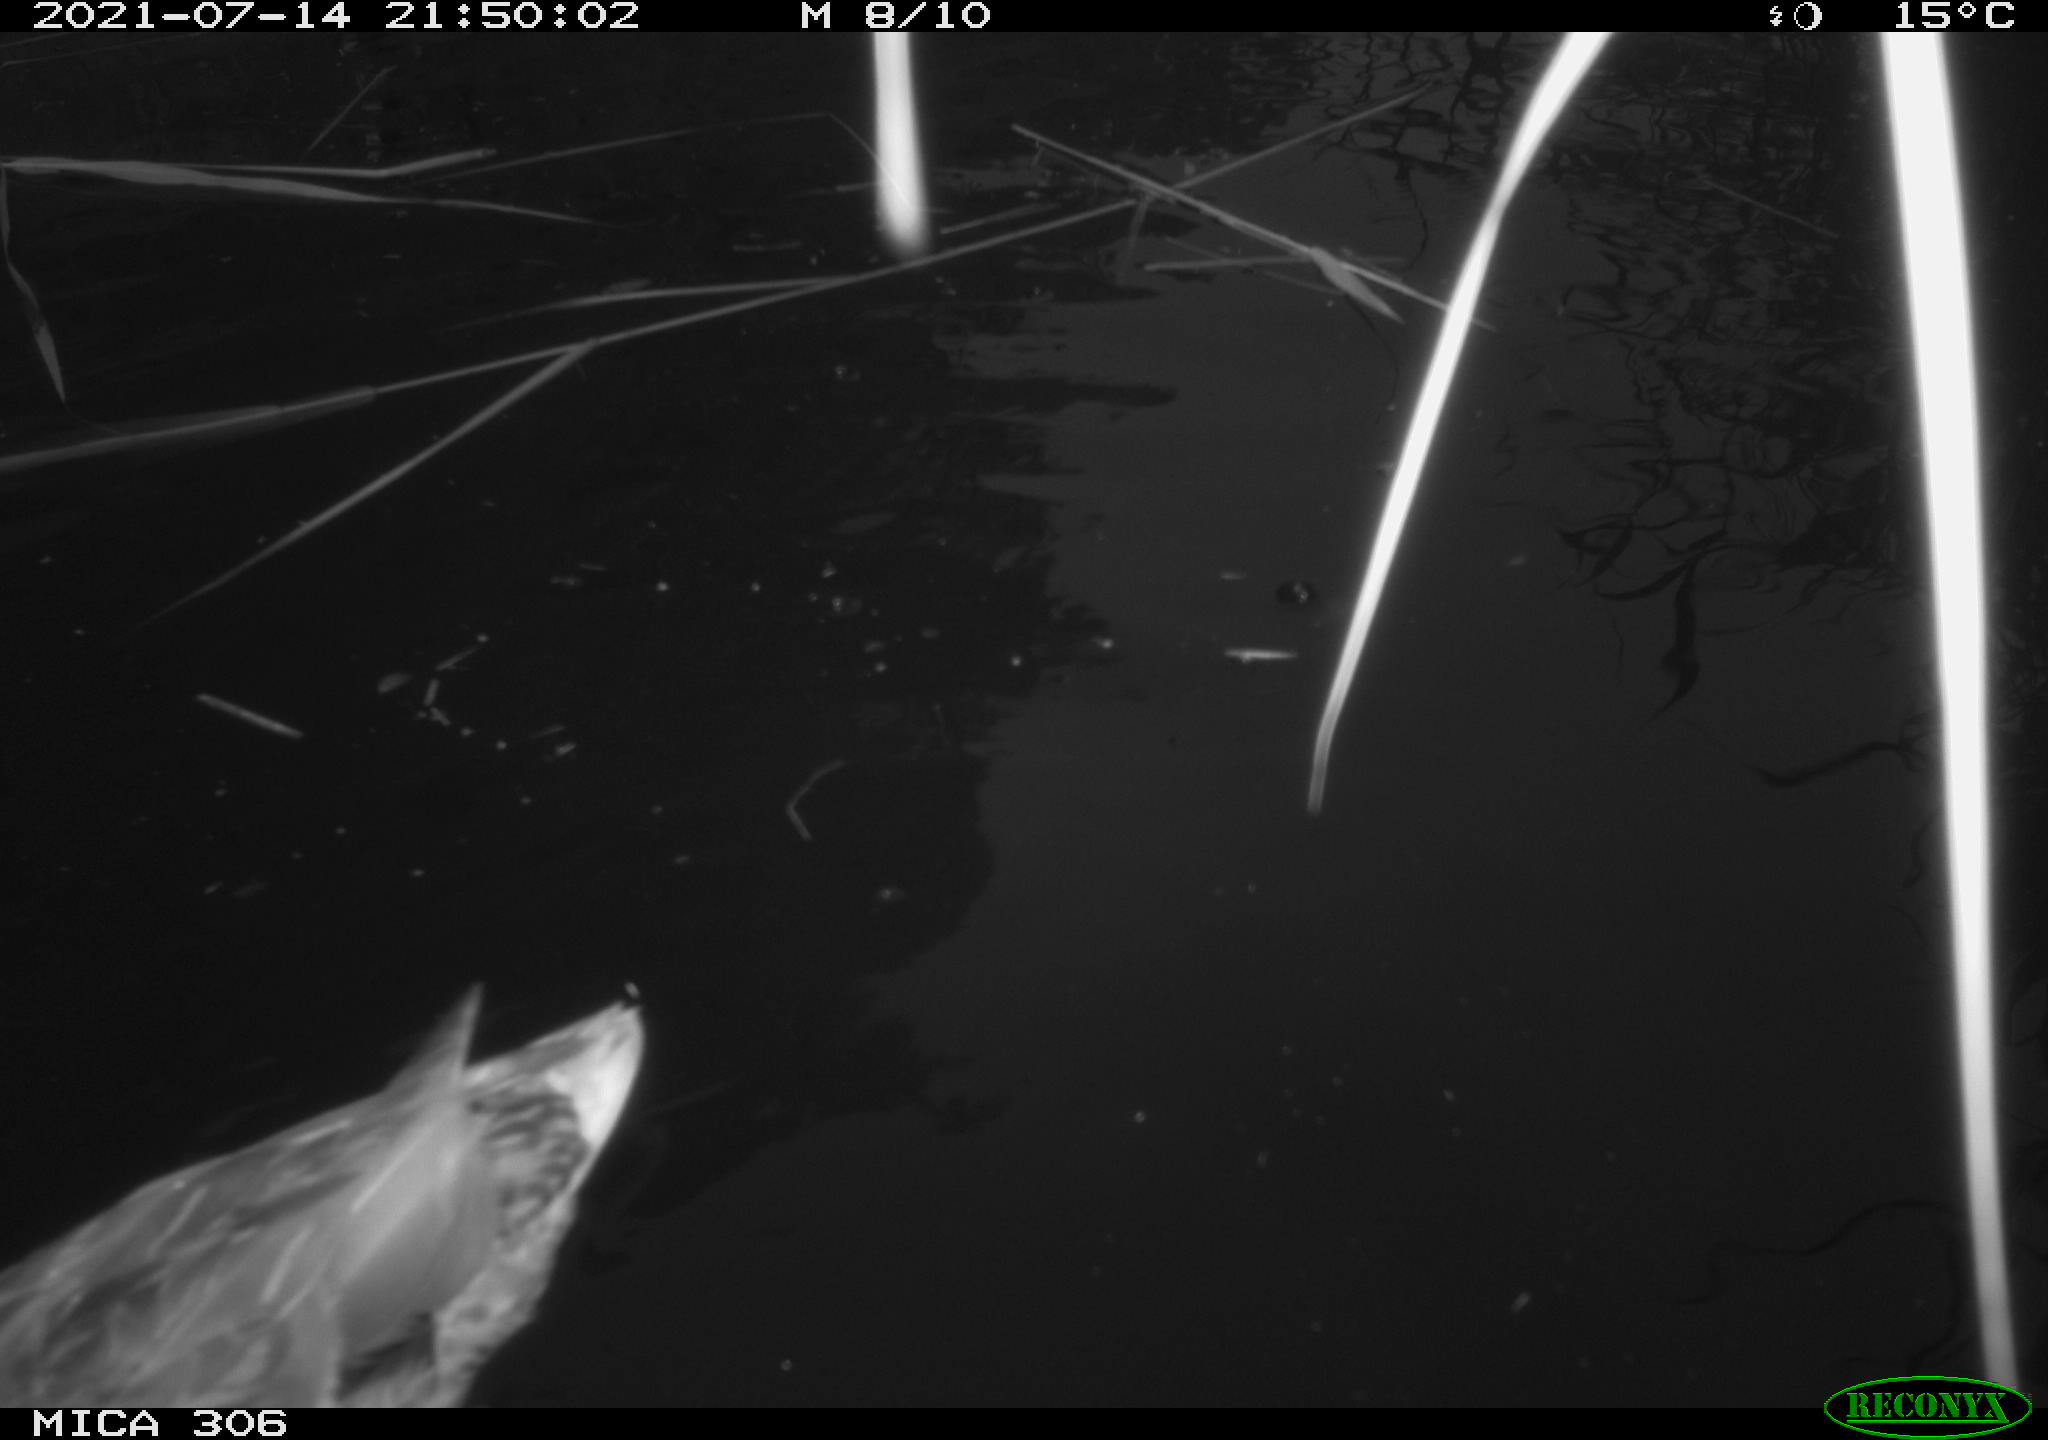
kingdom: Animalia
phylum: Chordata
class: Aves
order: Anseriformes
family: Anatidae
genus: Anas
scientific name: Anas
